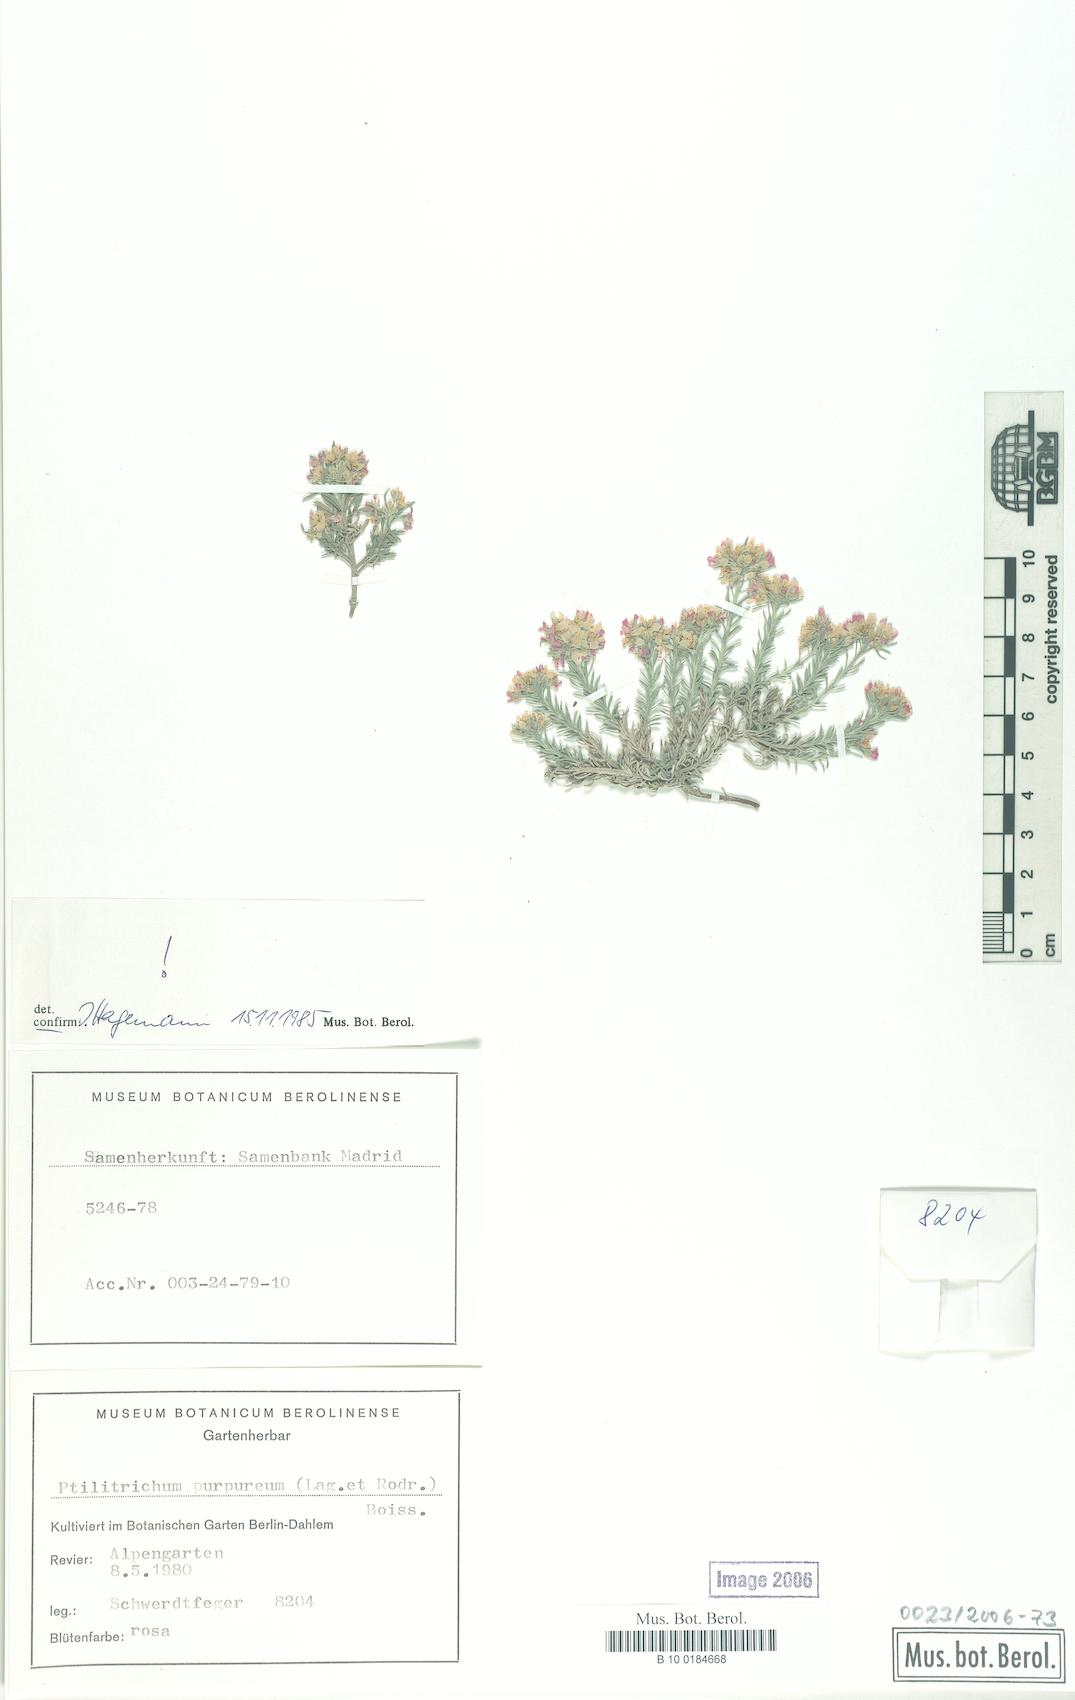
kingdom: Plantae
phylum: Tracheophyta
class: Magnoliopsida
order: Brassicales
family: Brassicaceae
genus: Hormathophylla
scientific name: Hormathophylla purpurea
